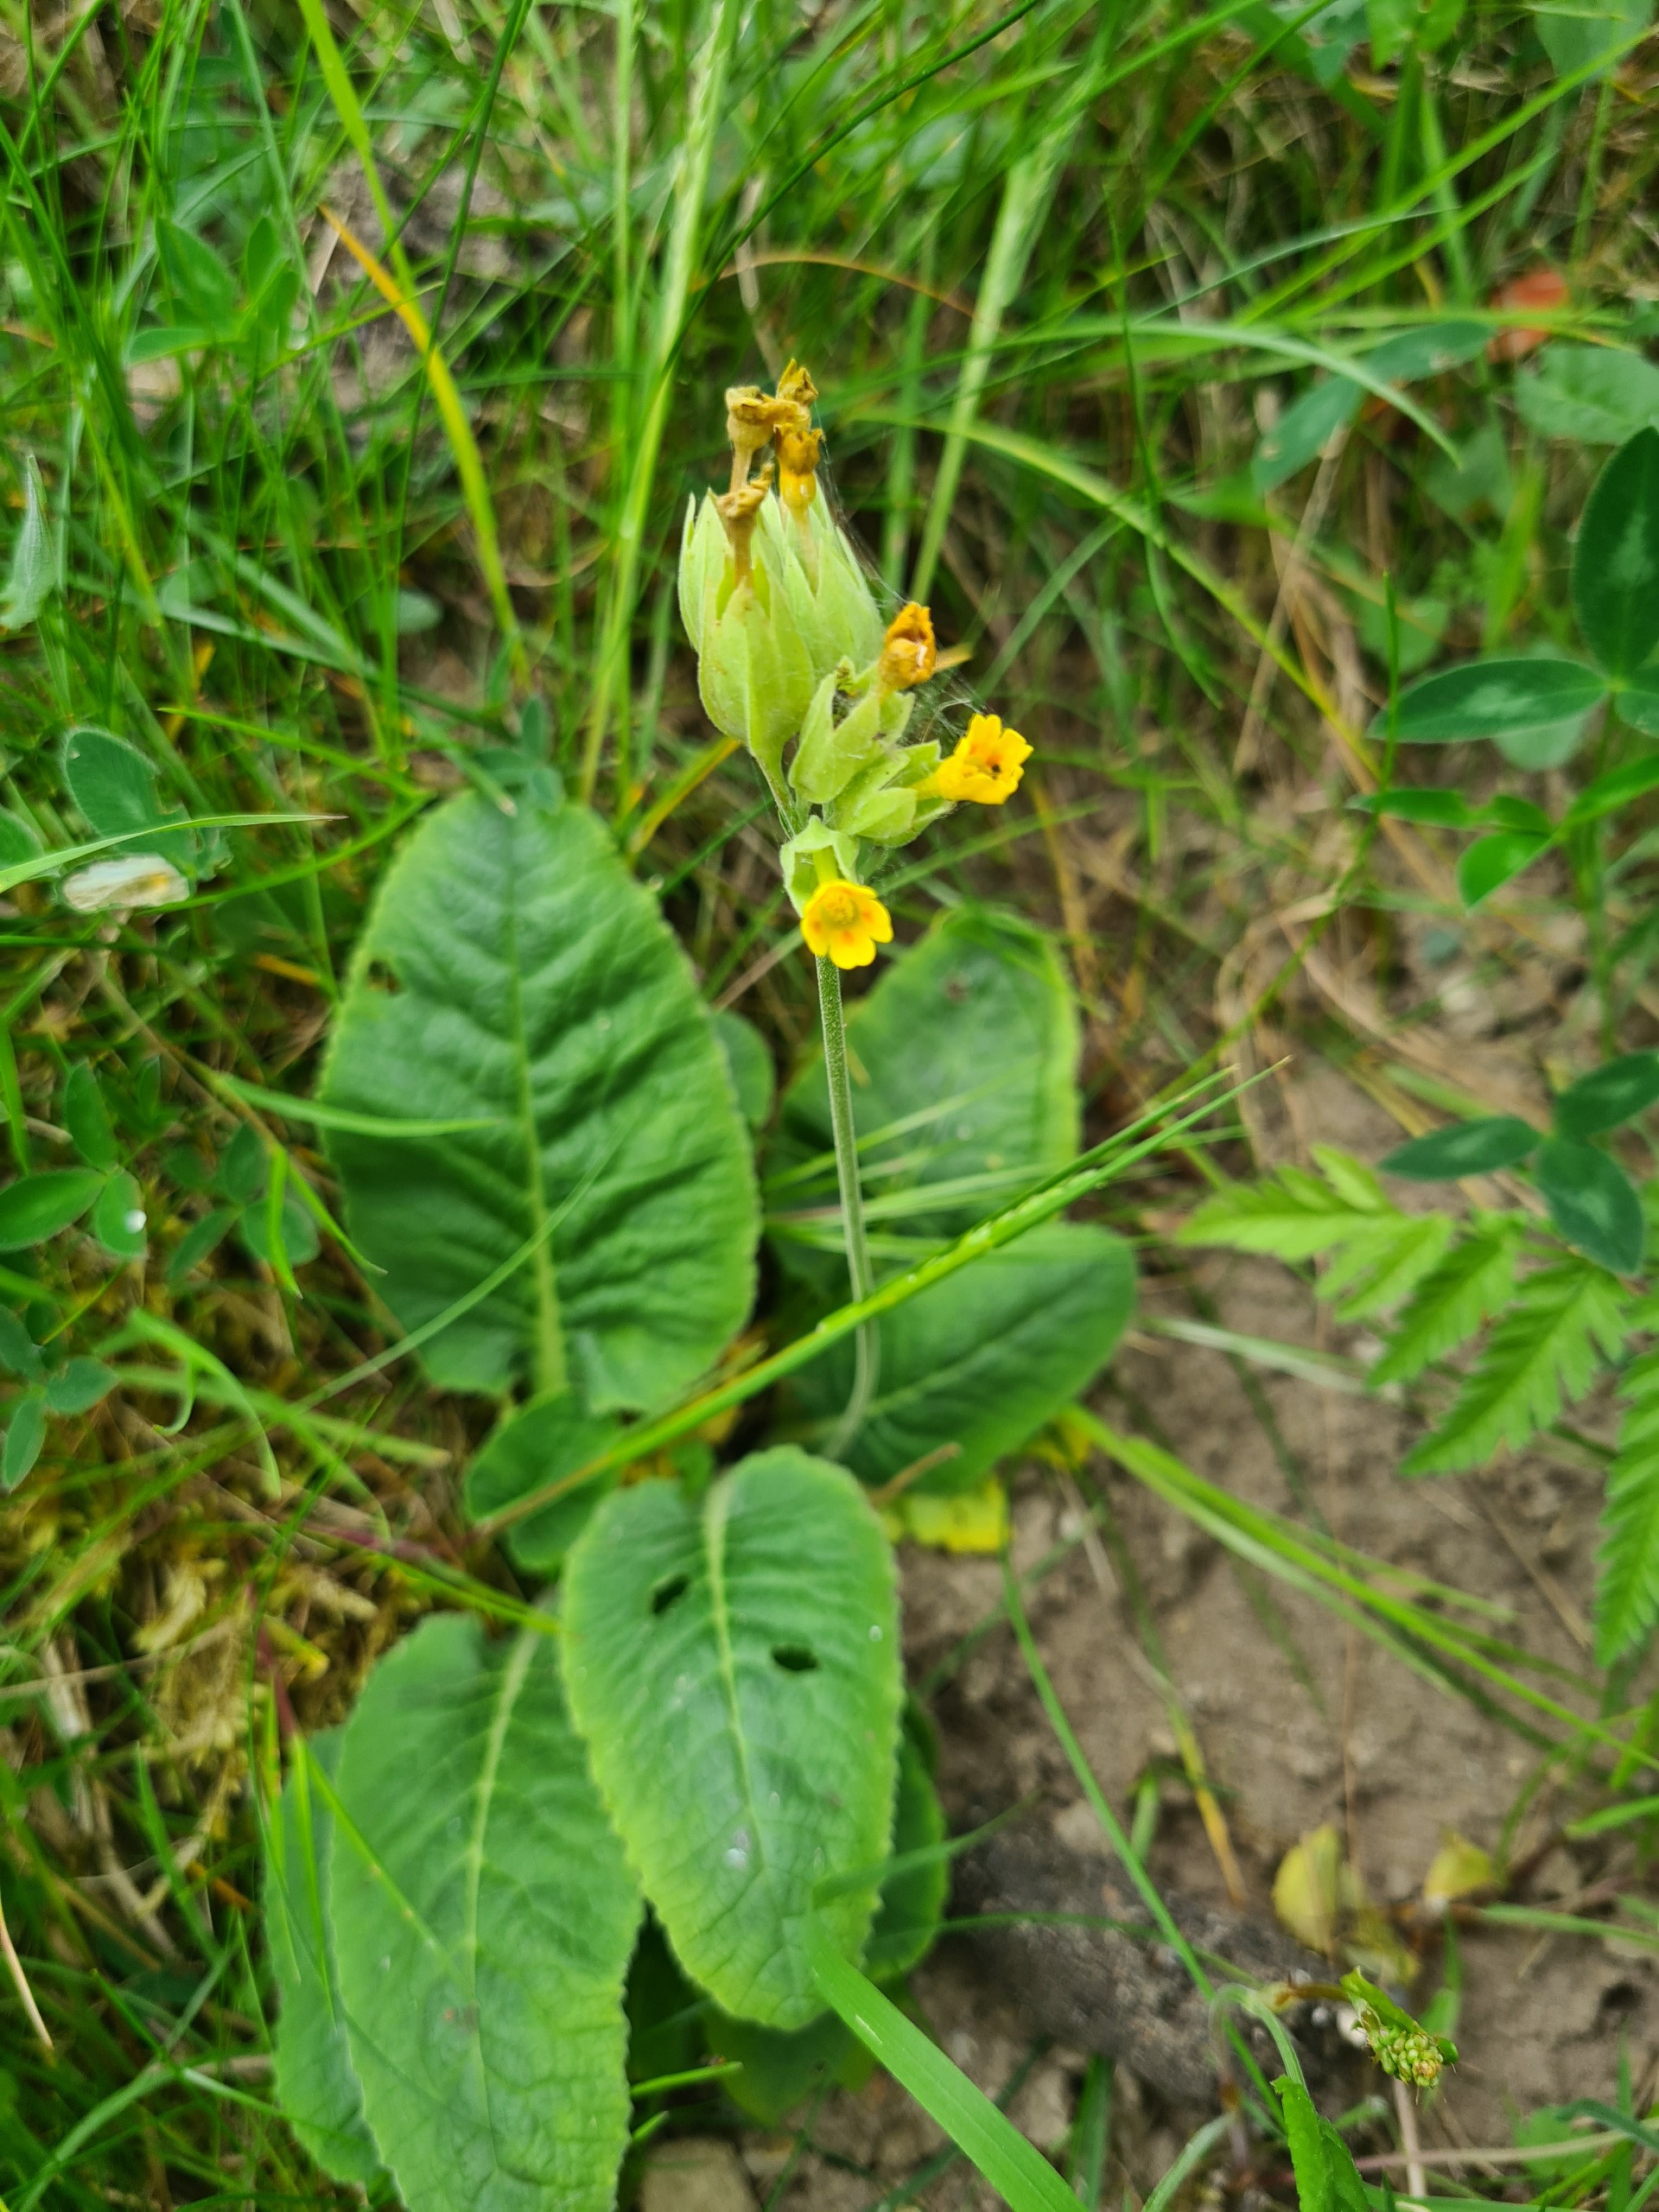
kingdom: Plantae
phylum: Tracheophyta
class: Magnoliopsida
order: Ericales
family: Primulaceae
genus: Primula
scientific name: Primula veris
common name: Hulkravet kodriver
